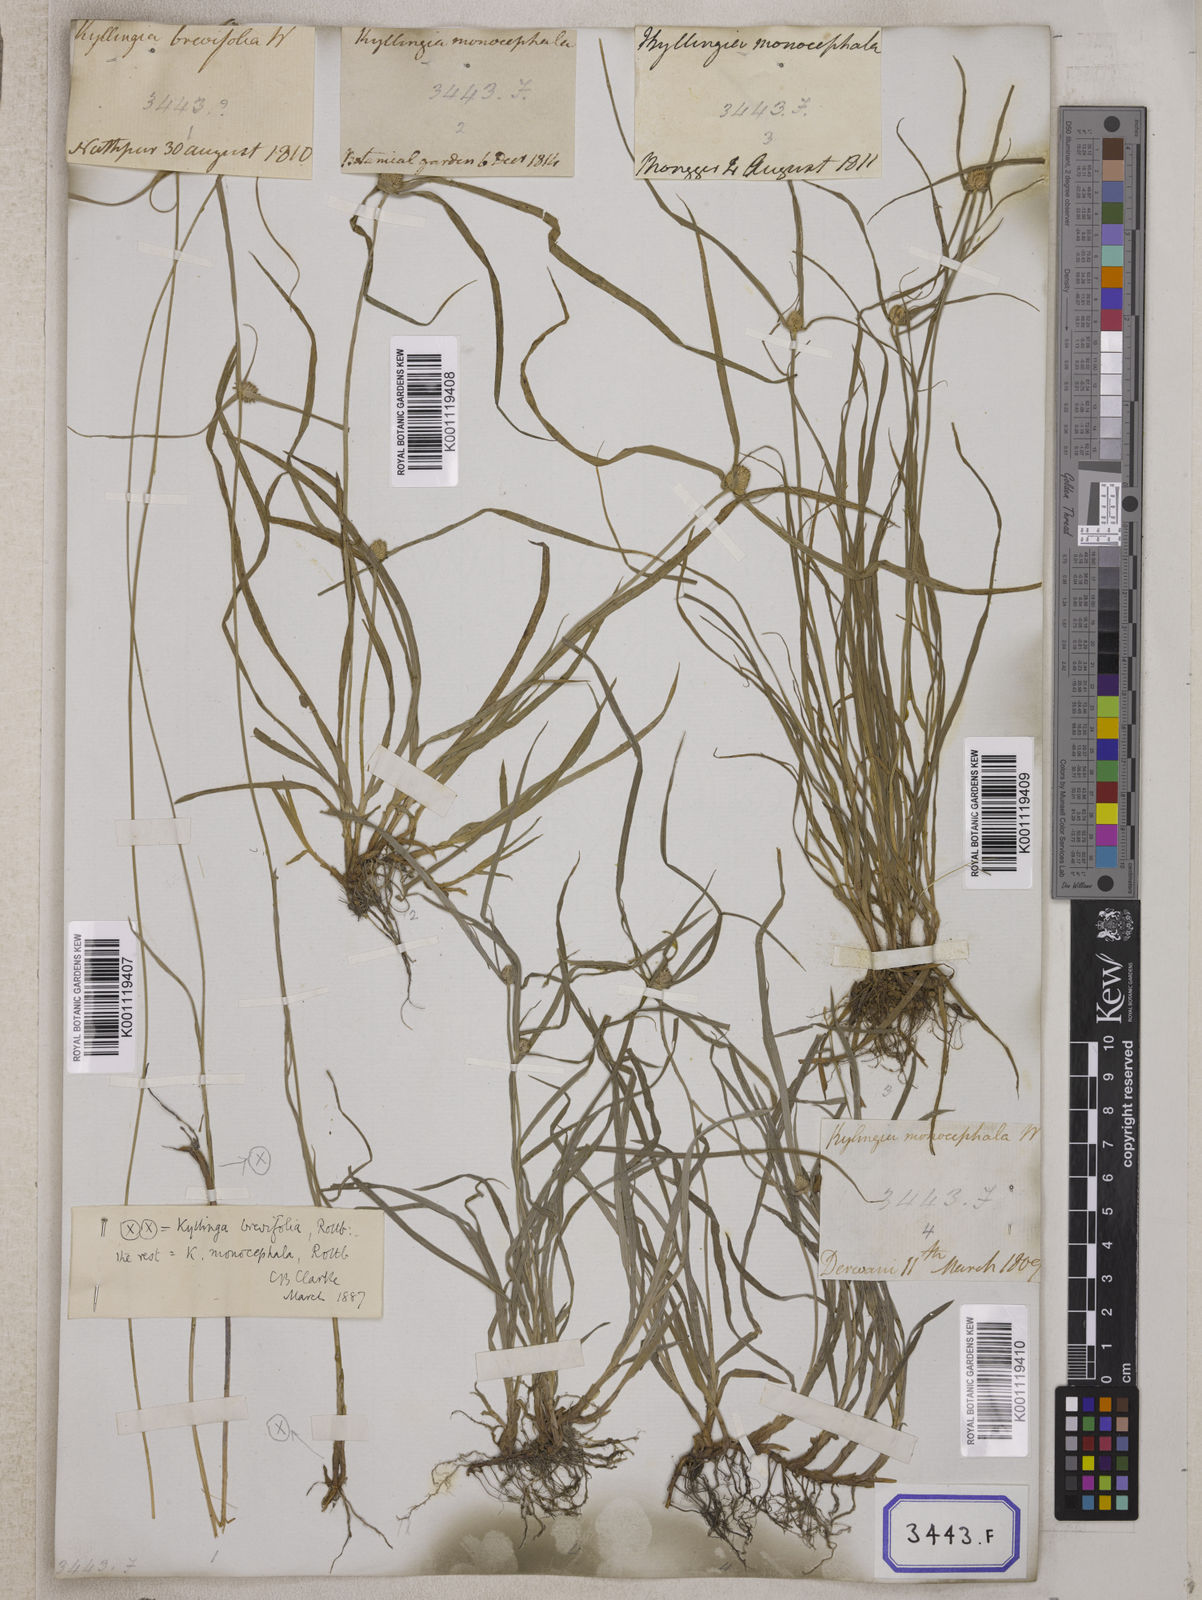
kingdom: Plantae
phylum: Tracheophyta
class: Liliopsida
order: Poales
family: Cyperaceae
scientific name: Cyperaceae
